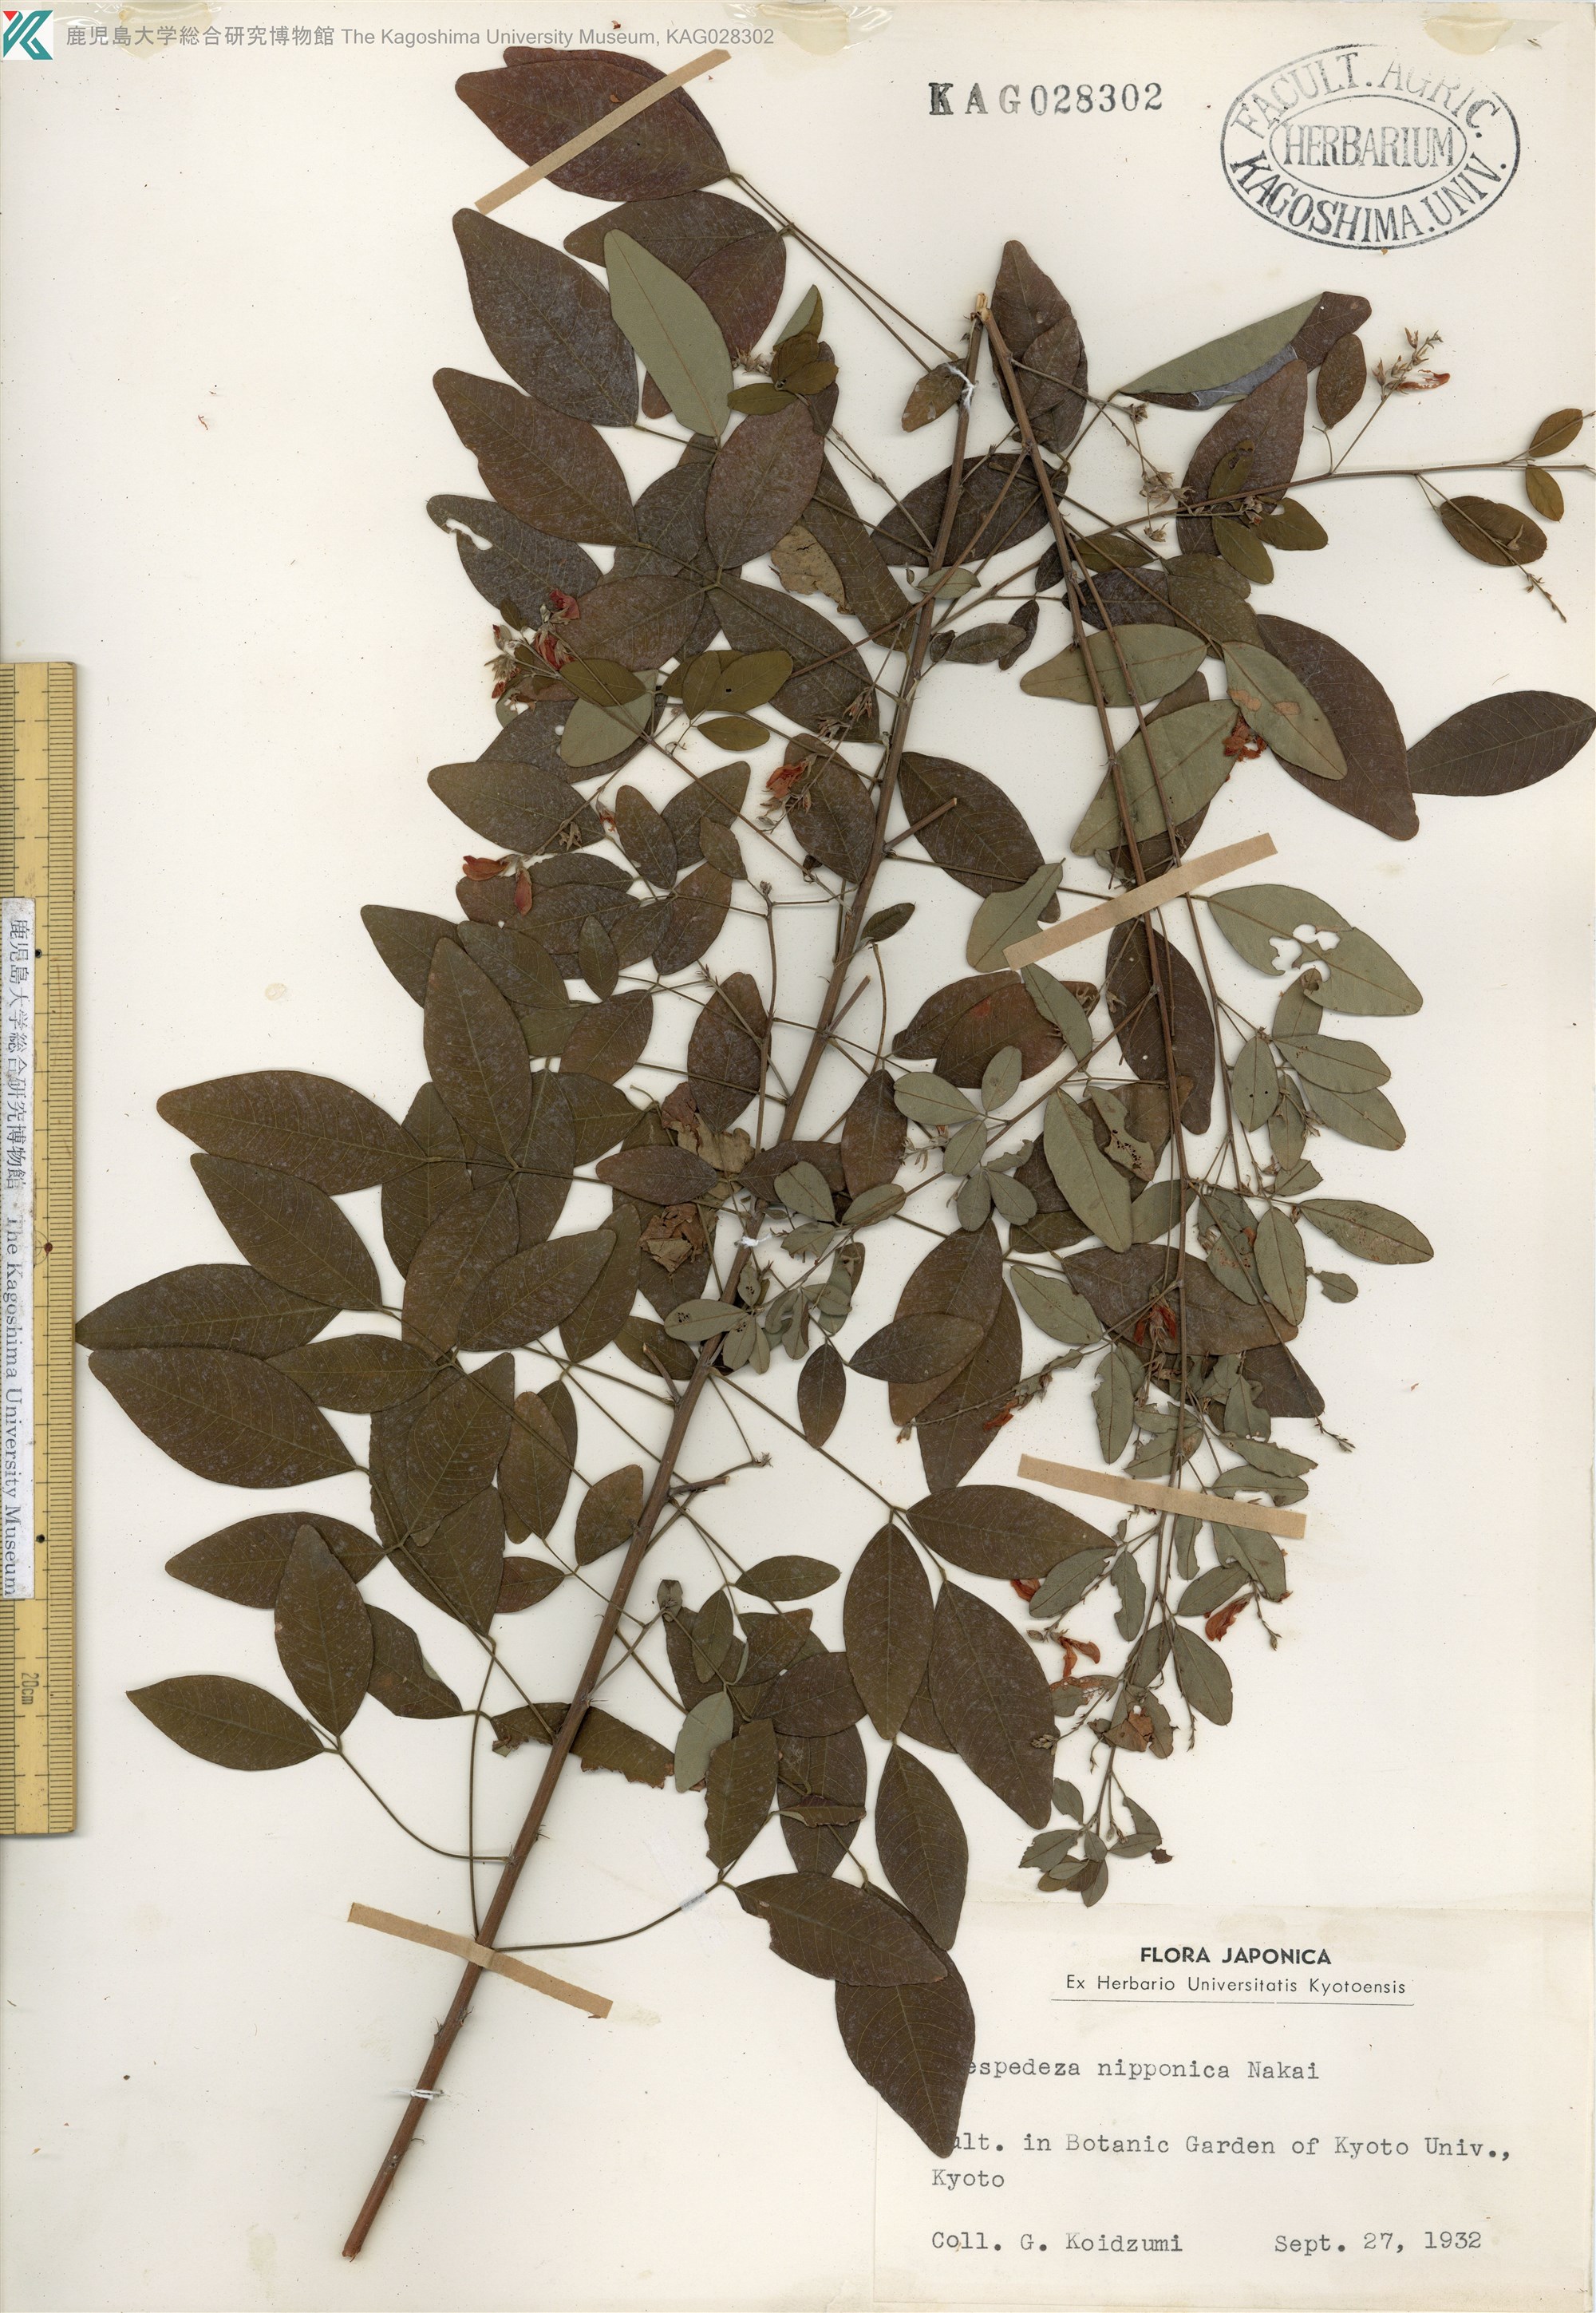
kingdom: Plantae
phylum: Tracheophyta
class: Magnoliopsida
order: Fabales
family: Fabaceae
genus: Lespedeza
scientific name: Lespedeza thunbergii
